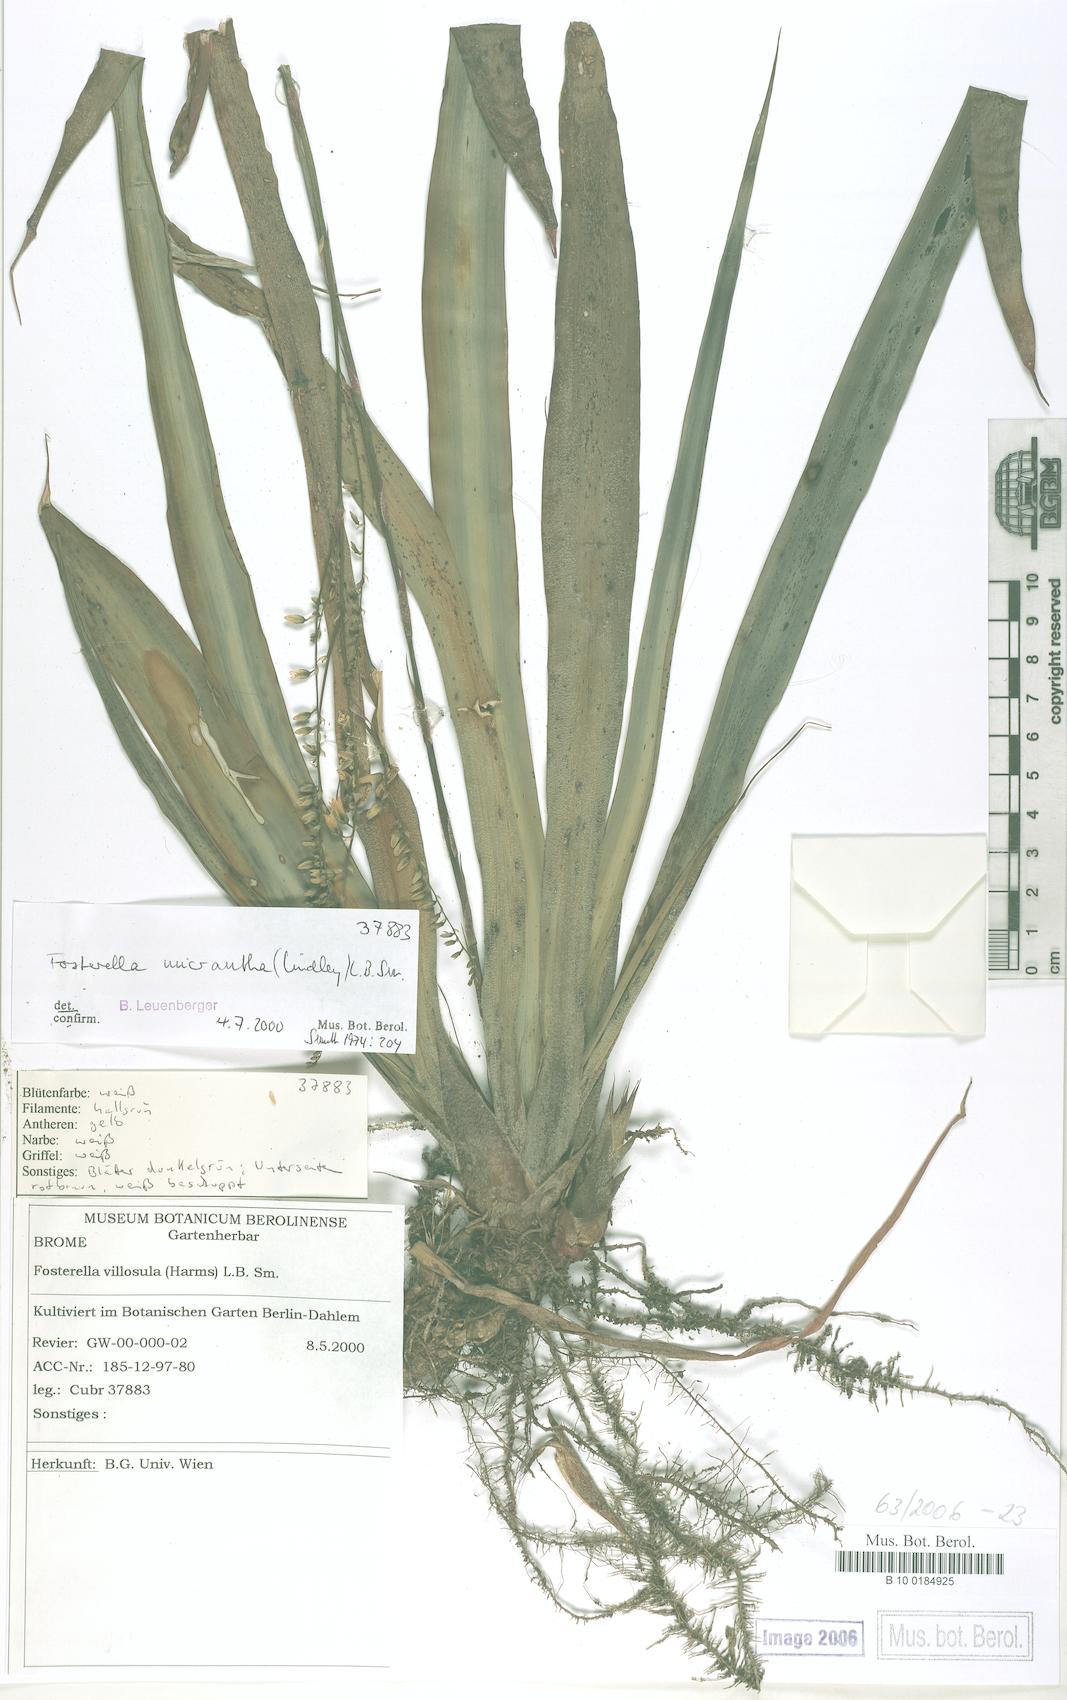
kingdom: Plantae
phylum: Tracheophyta
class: Liliopsida
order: Poales
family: Bromeliaceae
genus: Fosterella
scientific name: Fosterella micrantha
